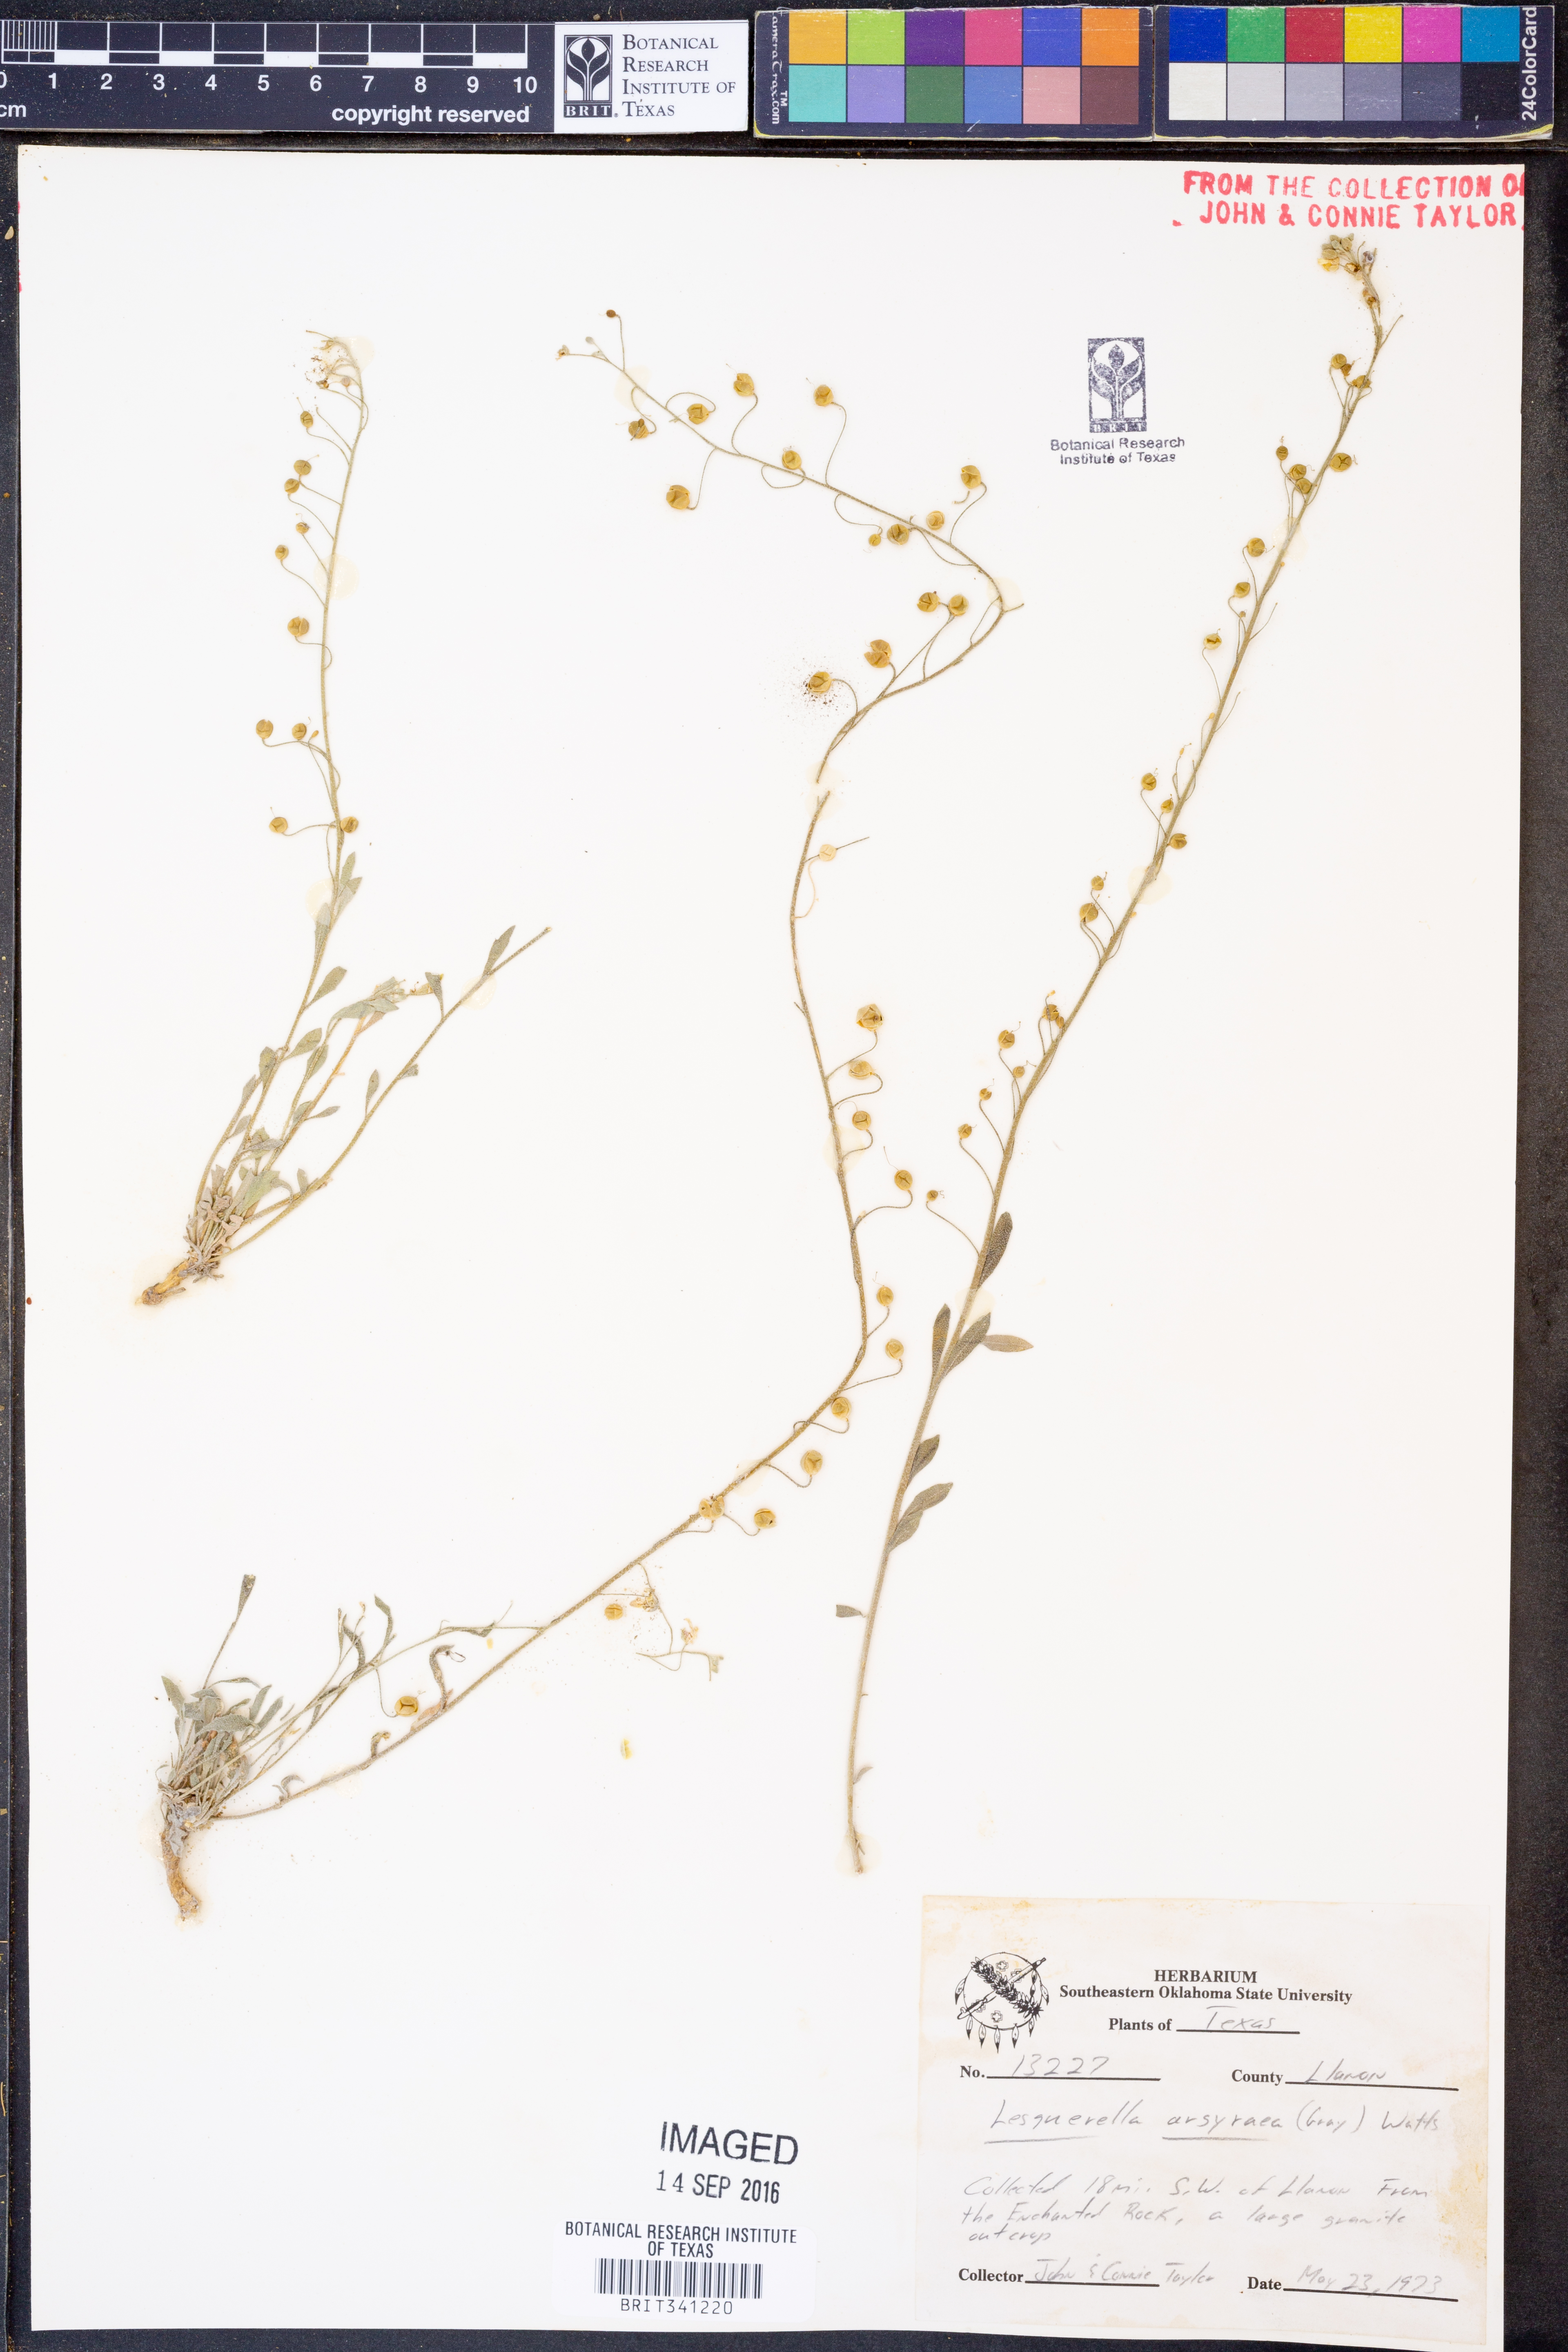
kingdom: Plantae
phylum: Tracheophyta
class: Magnoliopsida
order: Brassicales
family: Brassicaceae
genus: Physaria
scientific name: Physaria argyraea
